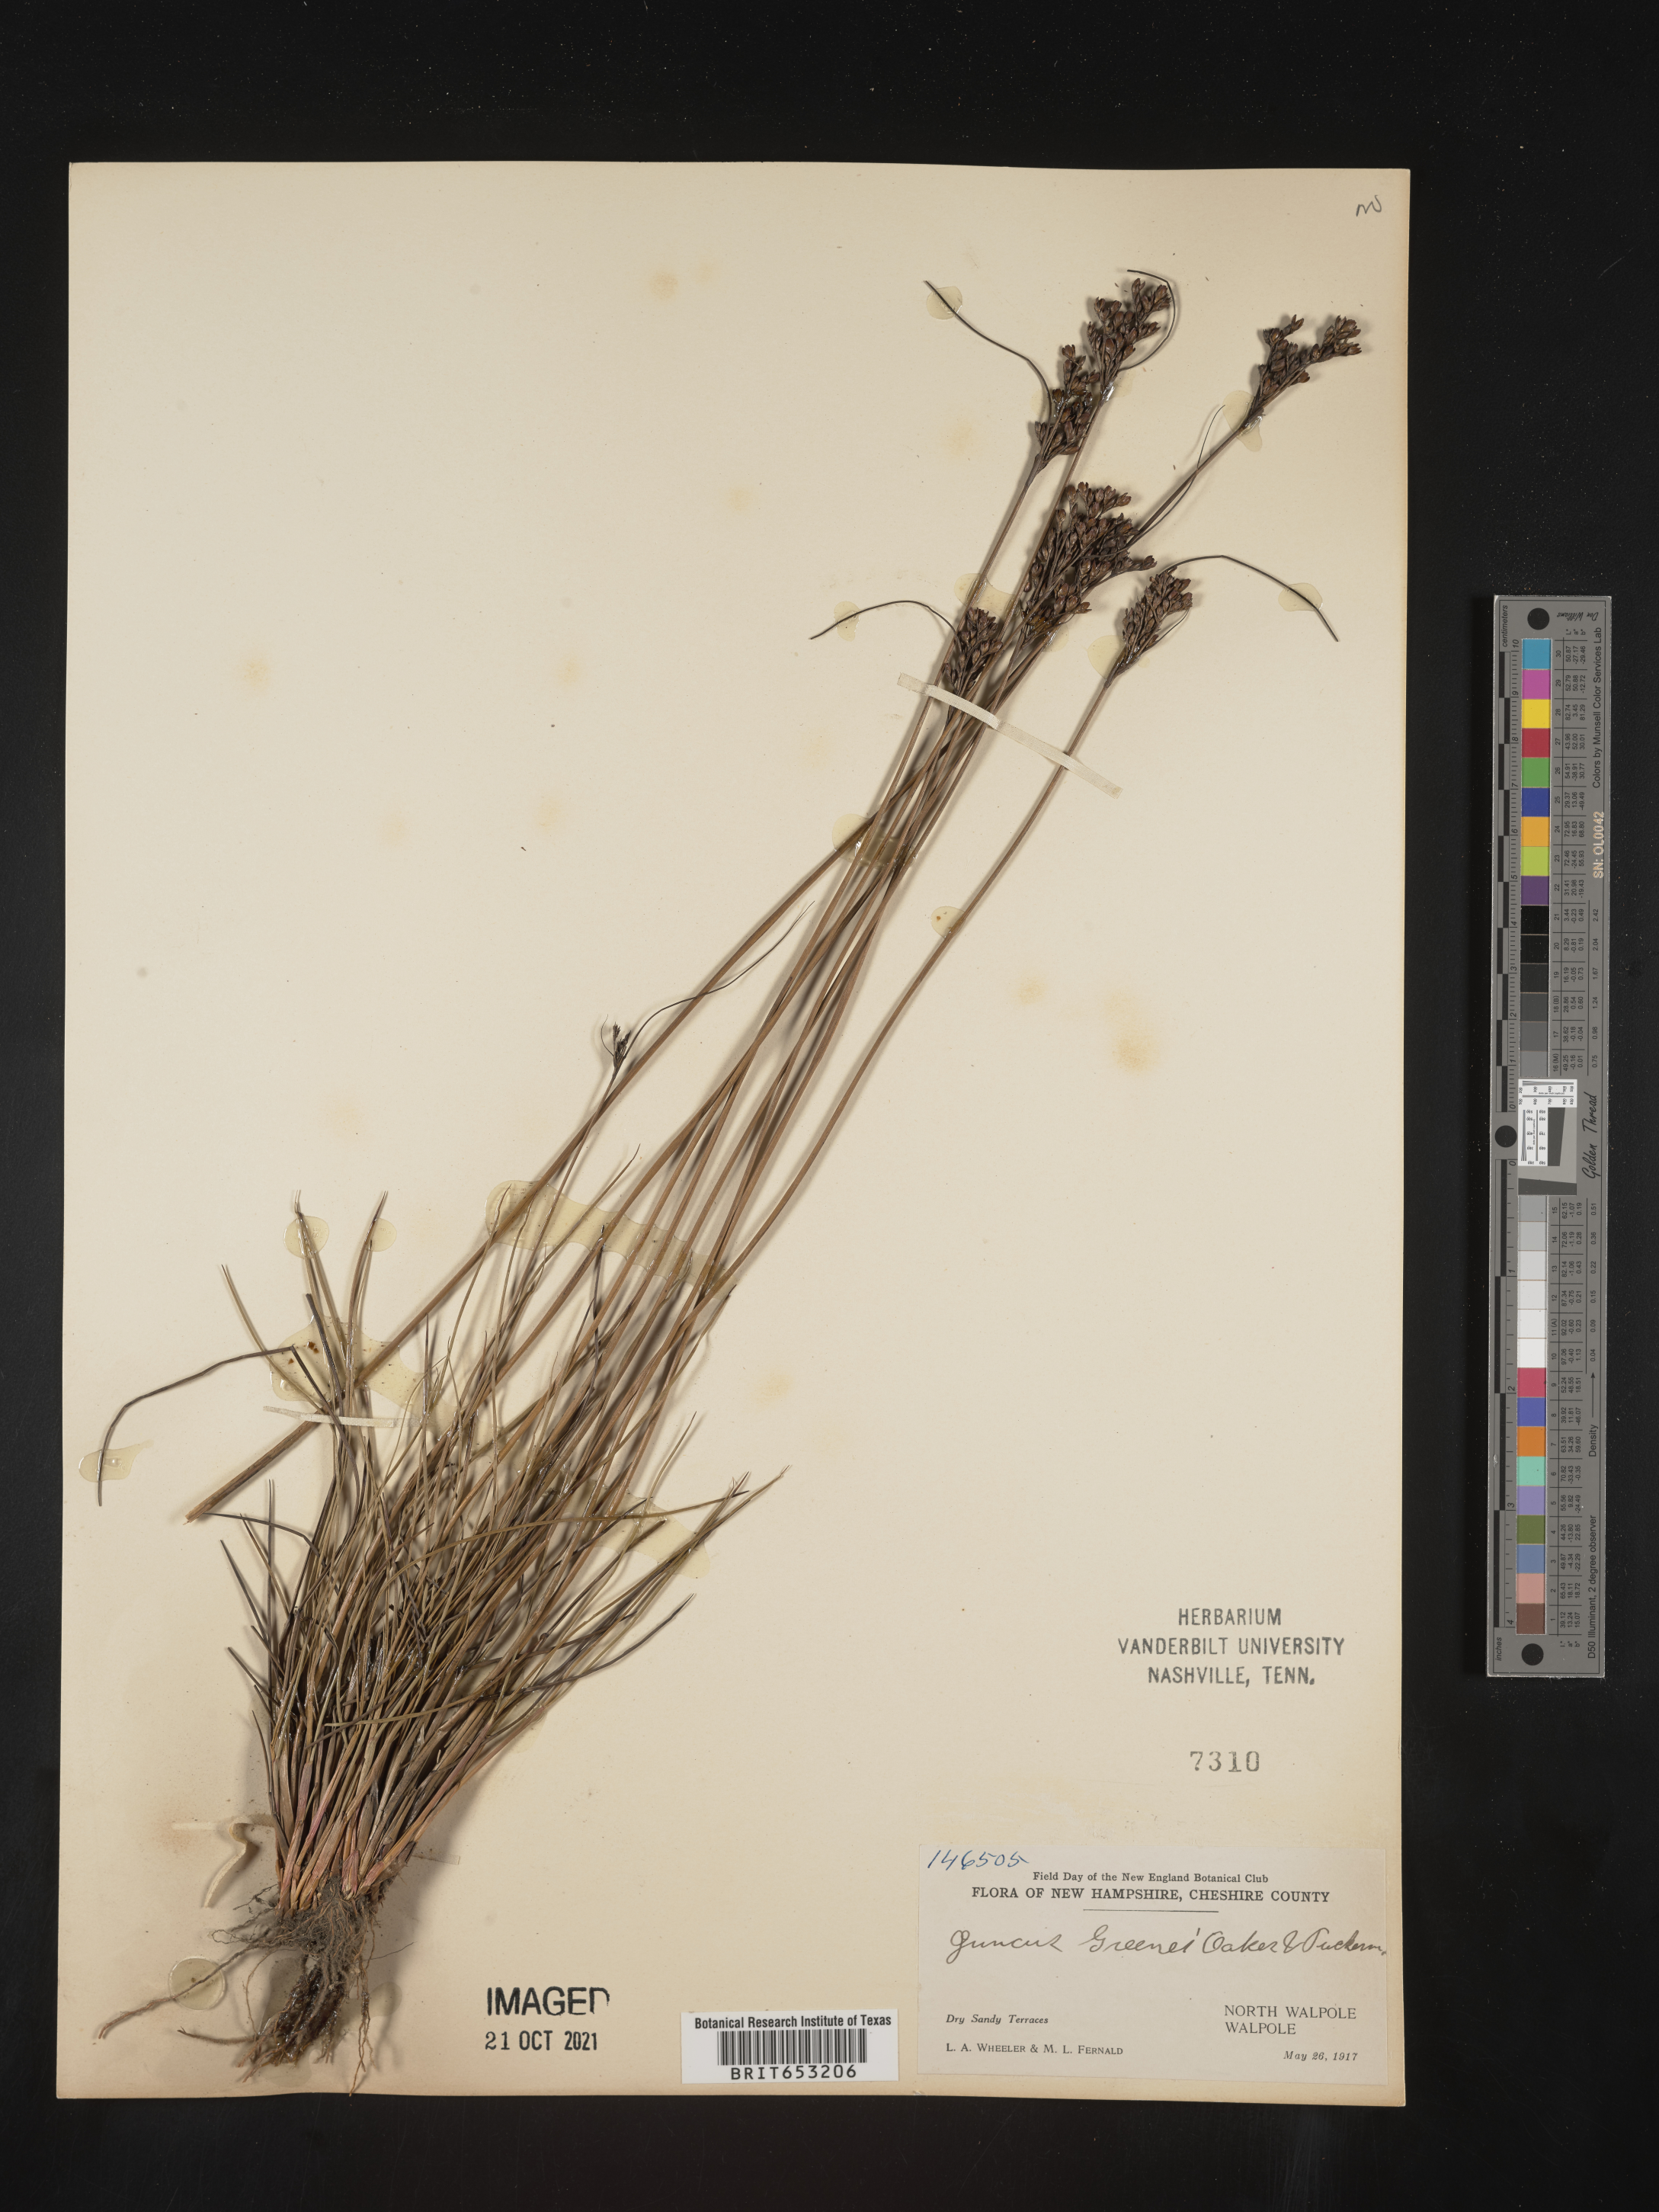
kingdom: Plantae
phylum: Tracheophyta
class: Liliopsida
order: Poales
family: Juncaceae
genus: Juncus
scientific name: Juncus greenei
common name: Greene's rush
